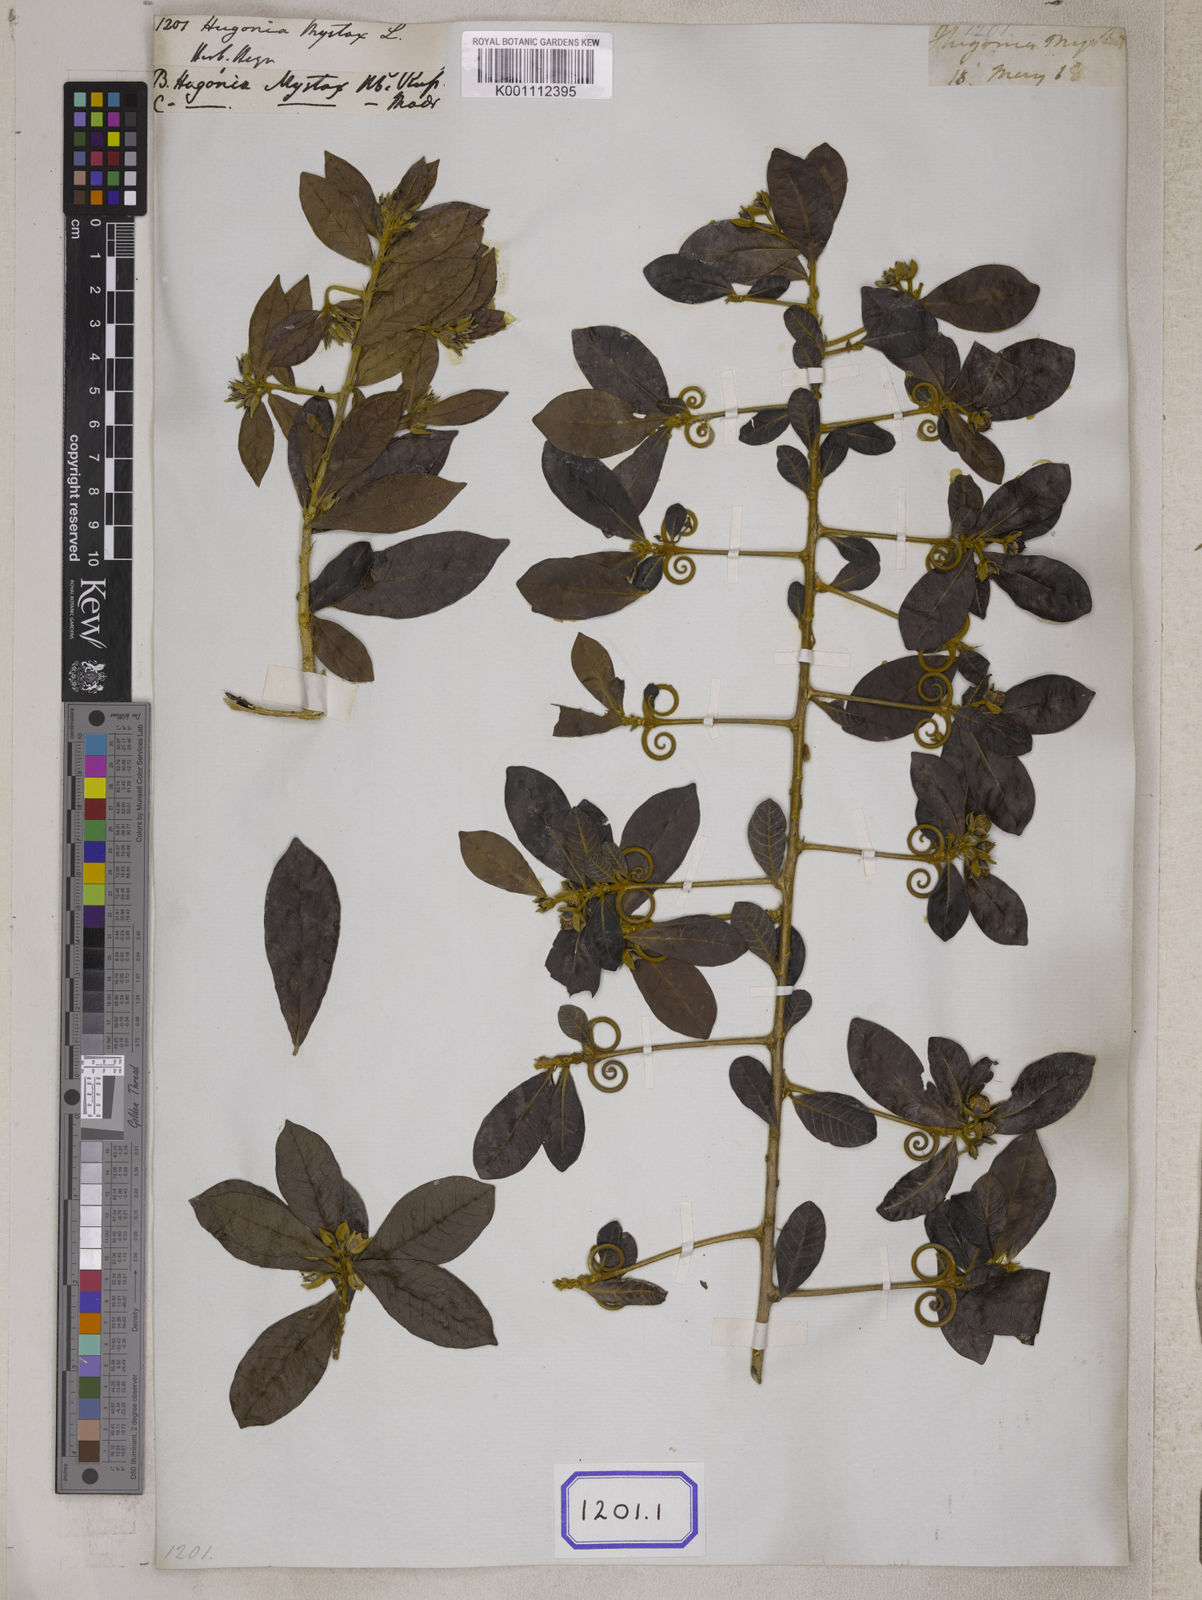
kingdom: Plantae
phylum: Tracheophyta
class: Magnoliopsida
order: Malpighiales
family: Linaceae
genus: Hugonia
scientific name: Hugonia mystax
